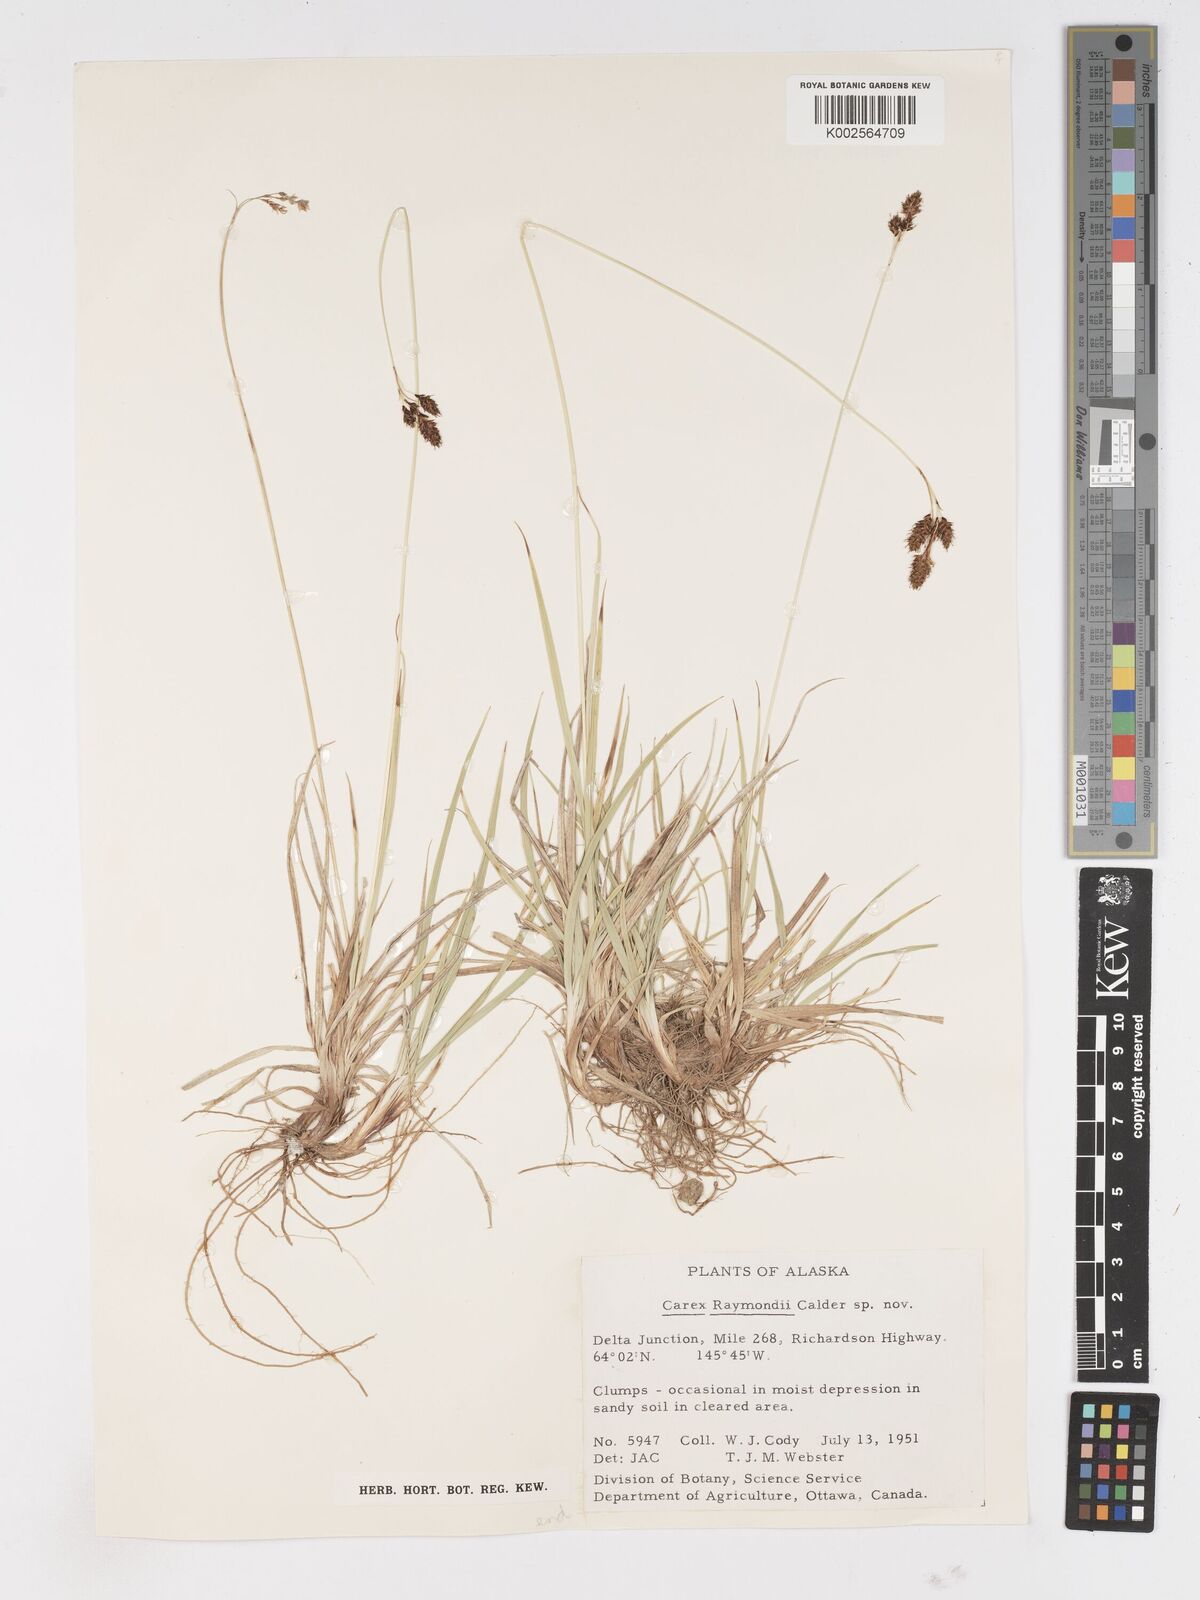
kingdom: Plantae
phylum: Tracheophyta
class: Liliopsida
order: Poales
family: Cyperaceae
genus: Carex
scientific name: Carex atratiformis
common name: Black sedge
